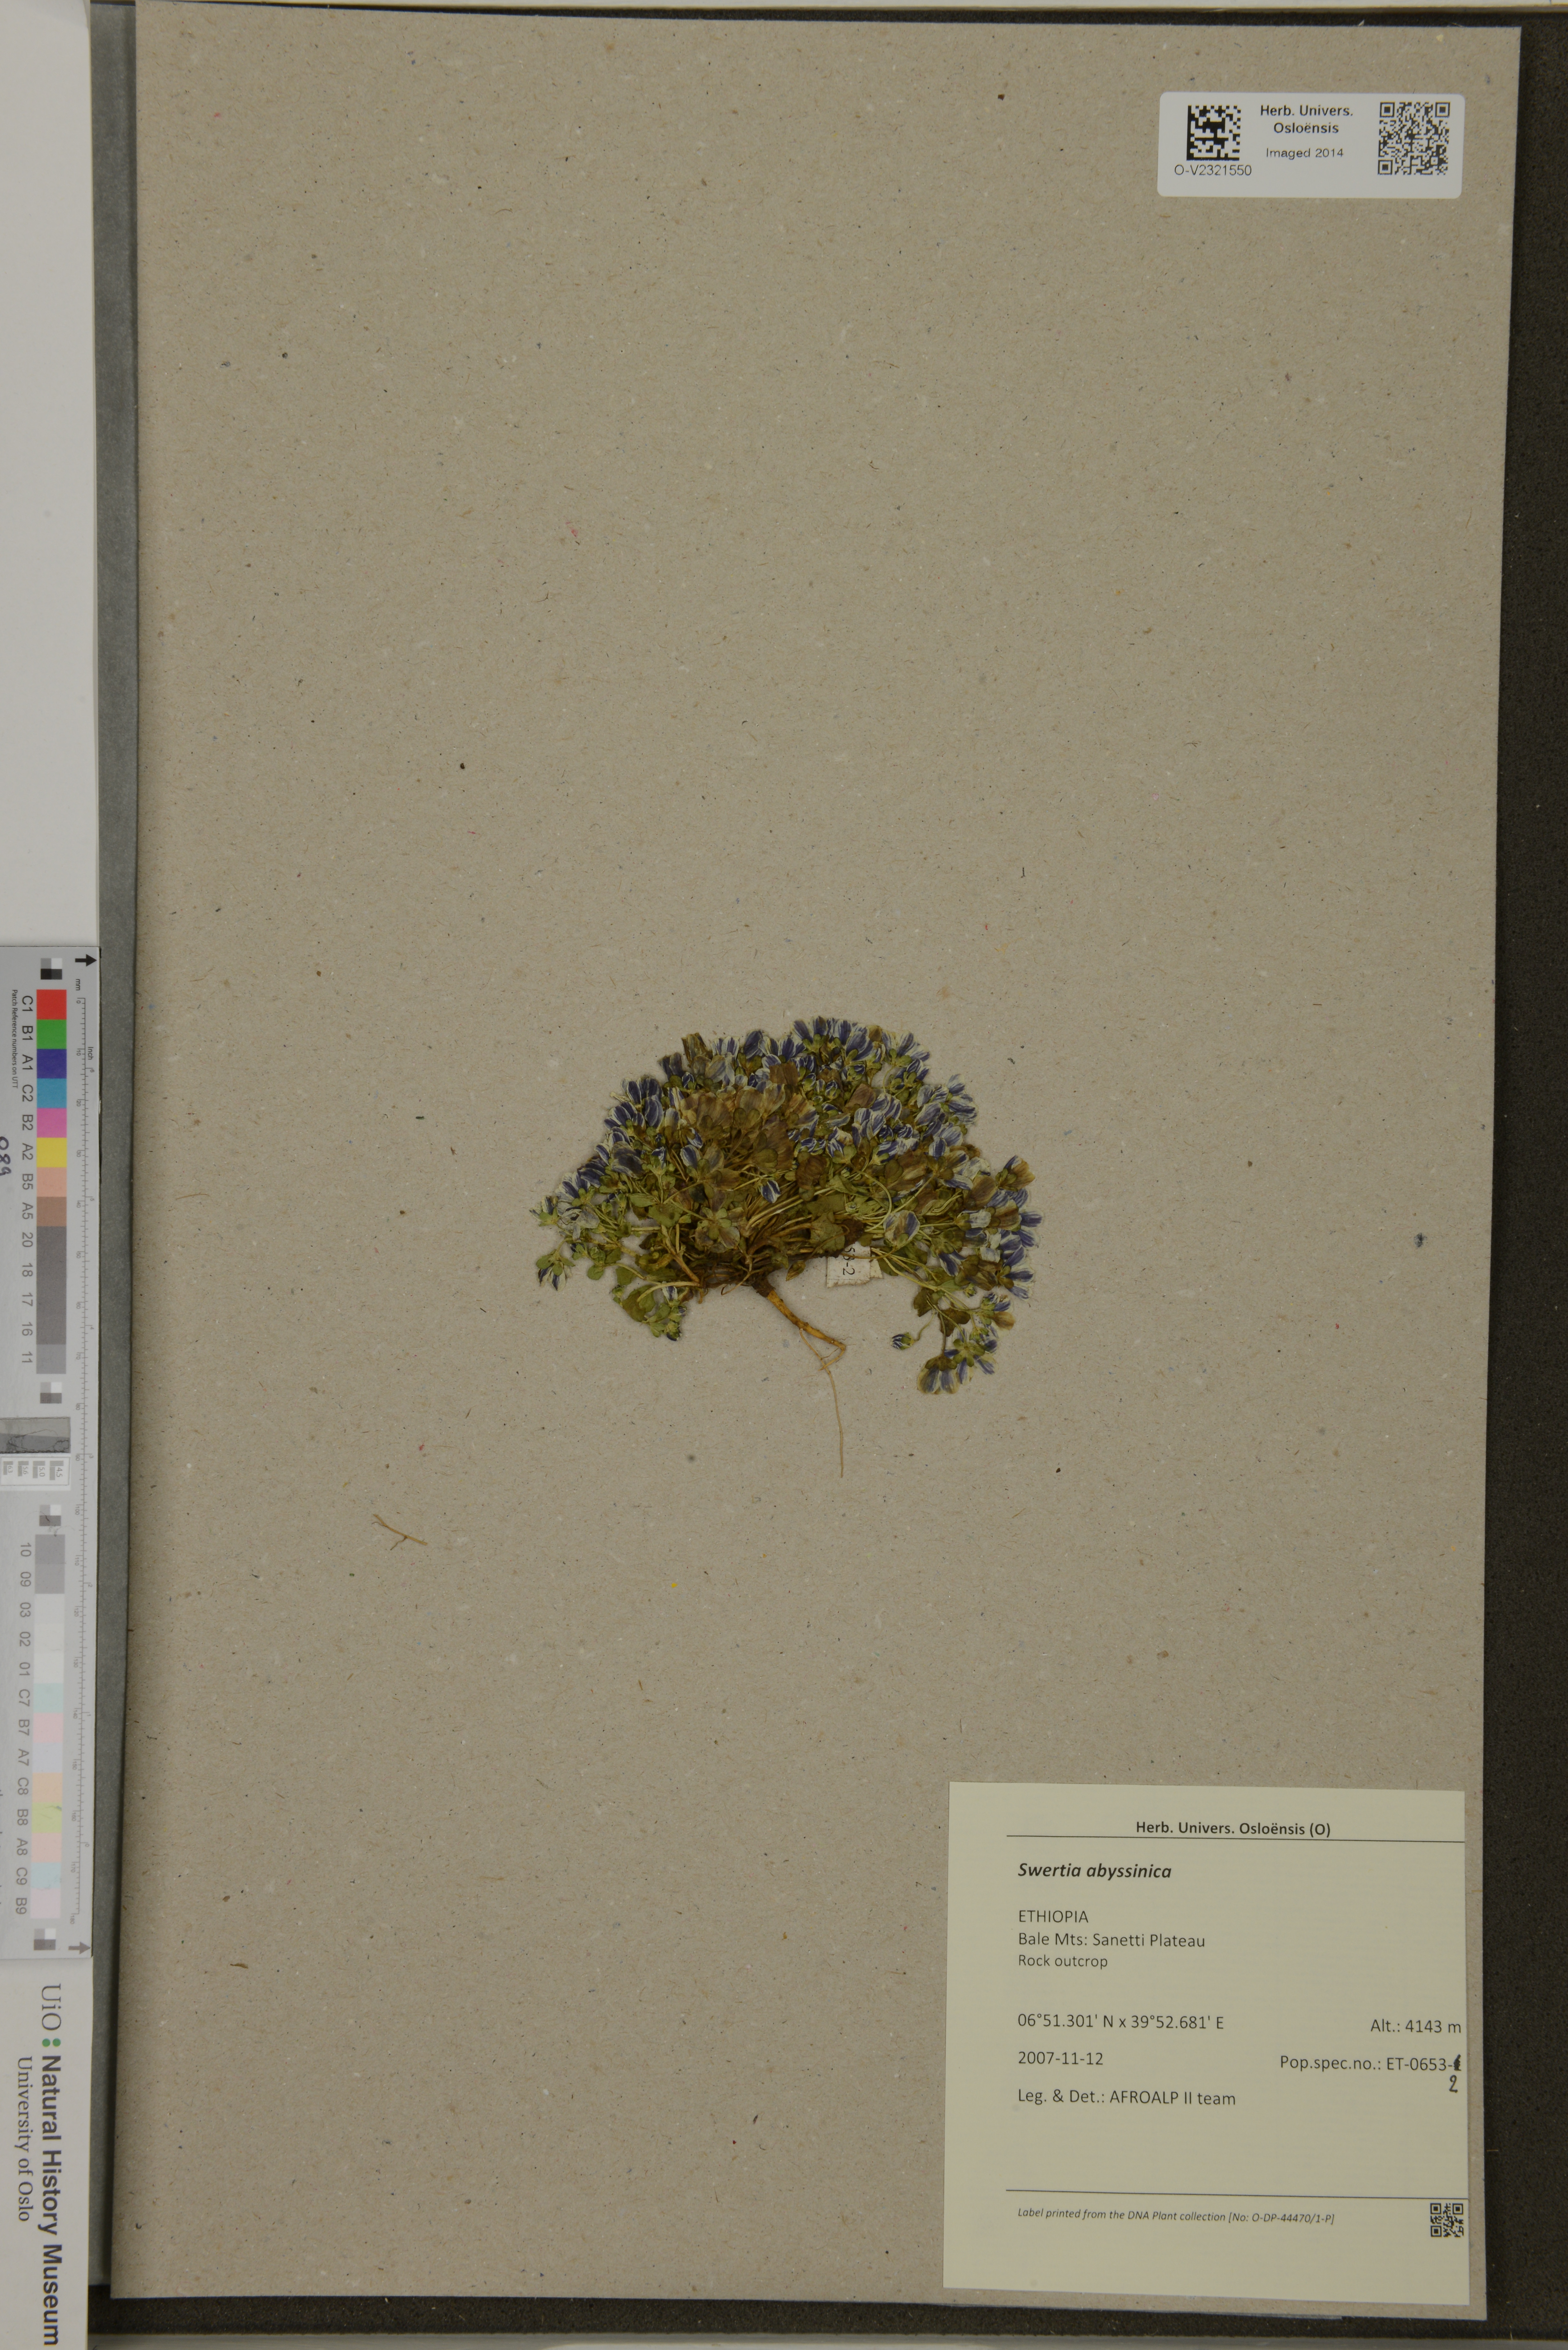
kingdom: Plantae
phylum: Tracheophyta
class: Magnoliopsida
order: Gentianales
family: Gentianaceae
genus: Swertia
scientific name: Swertia abyssinica
